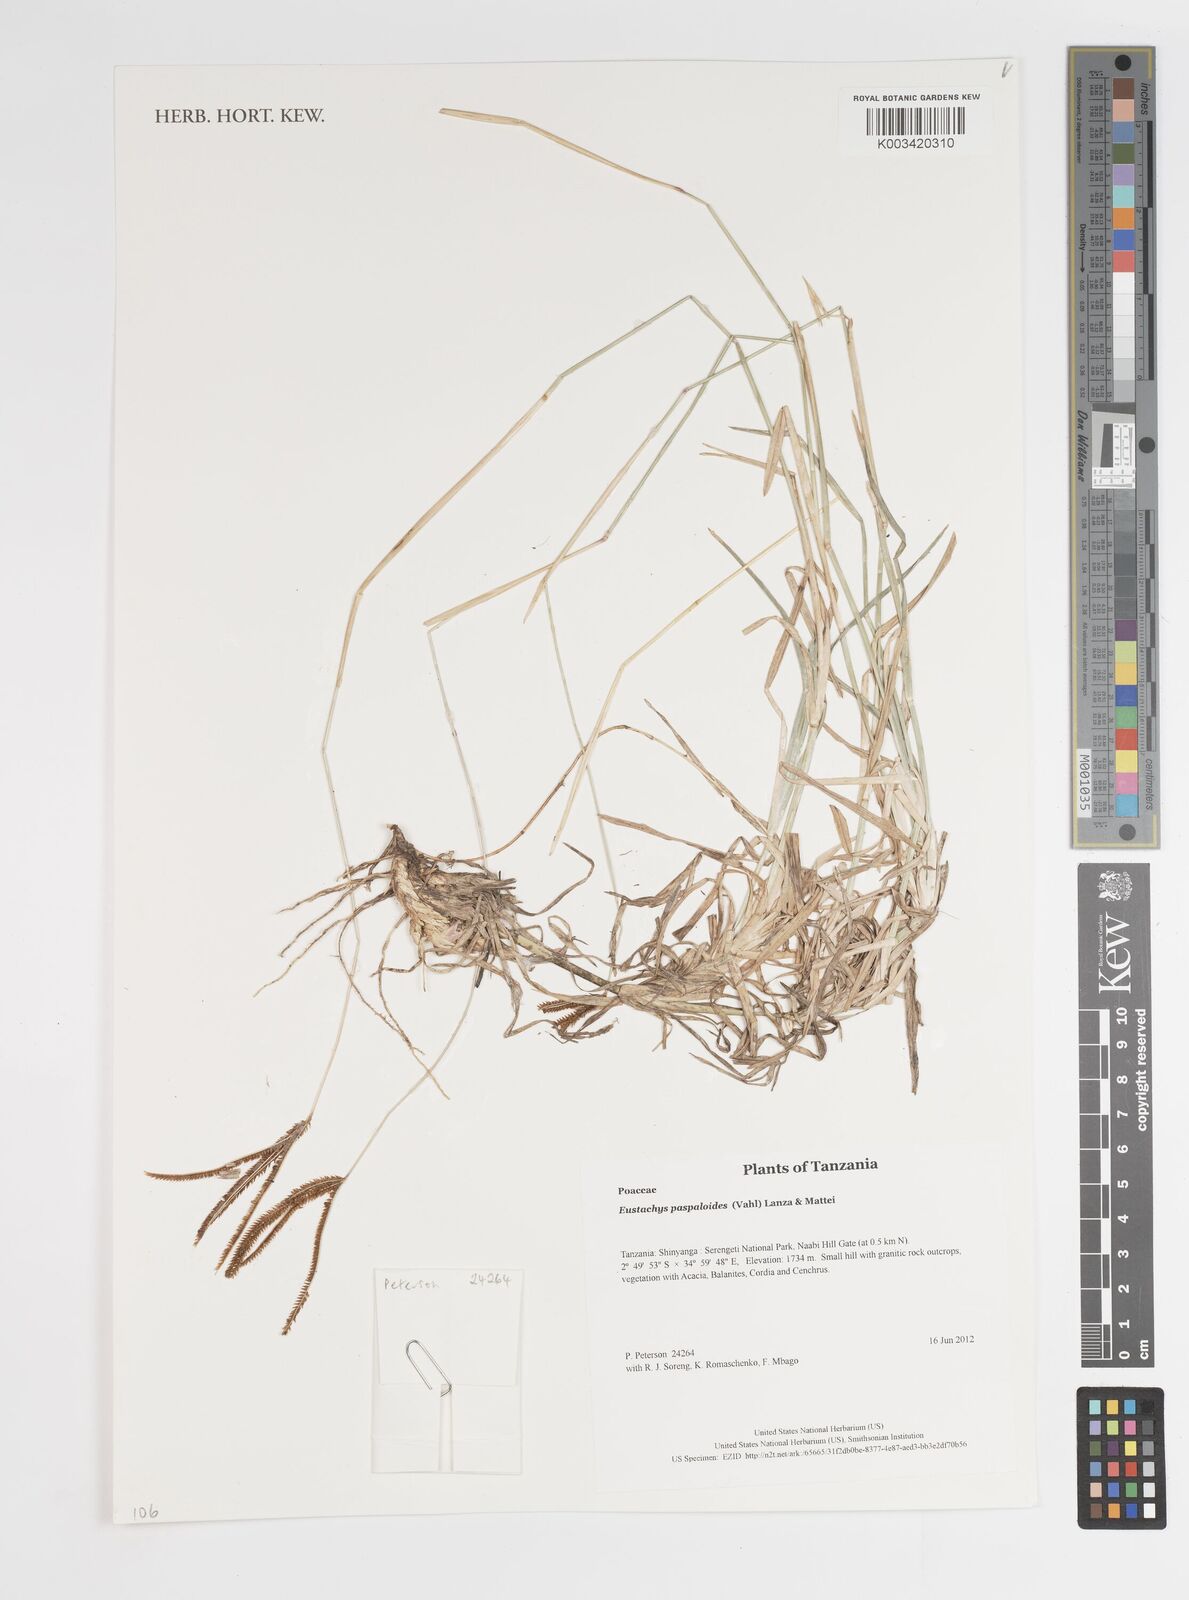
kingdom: Plantae
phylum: Tracheophyta
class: Liliopsida
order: Poales
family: Poaceae
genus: Eustachys
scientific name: Eustachys
